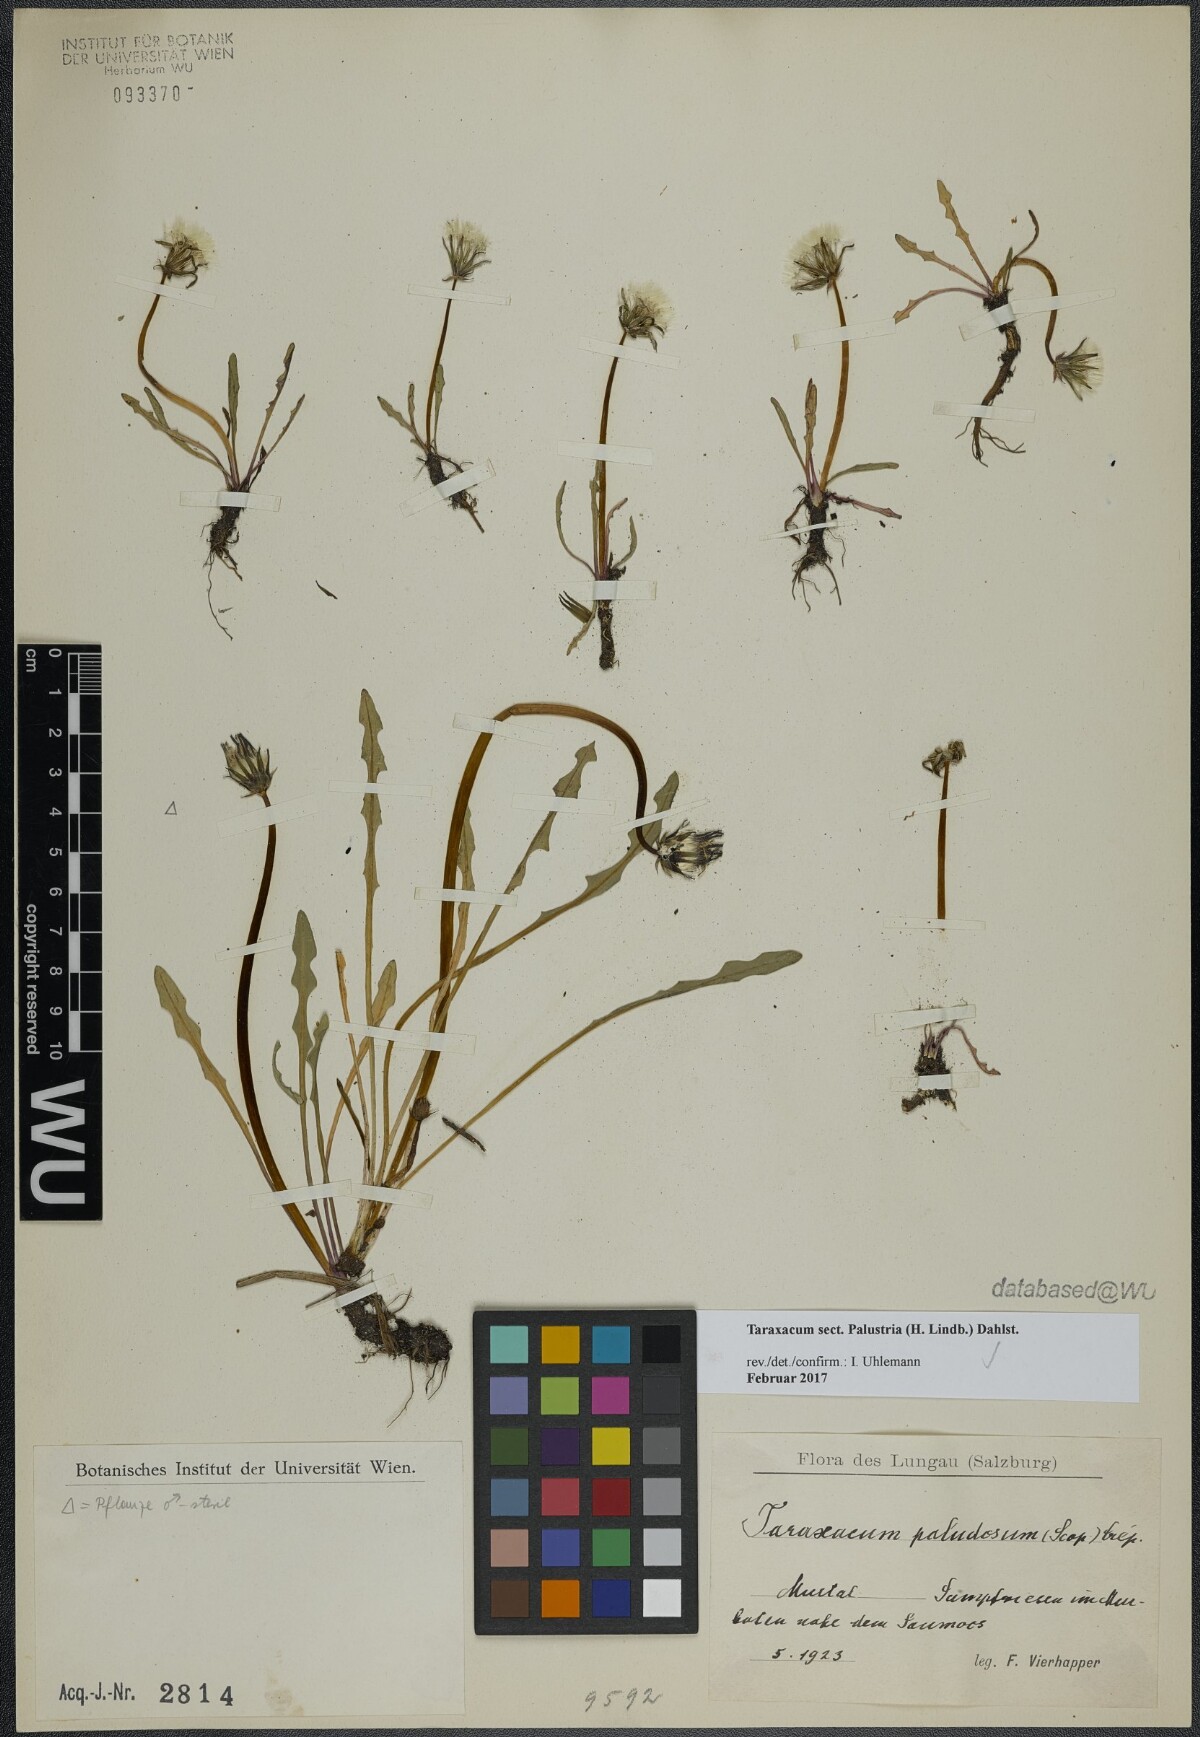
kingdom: Plantae
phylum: Tracheophyta
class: Magnoliopsida
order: Asterales
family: Asteraceae
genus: Taraxacum
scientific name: Taraxacum
